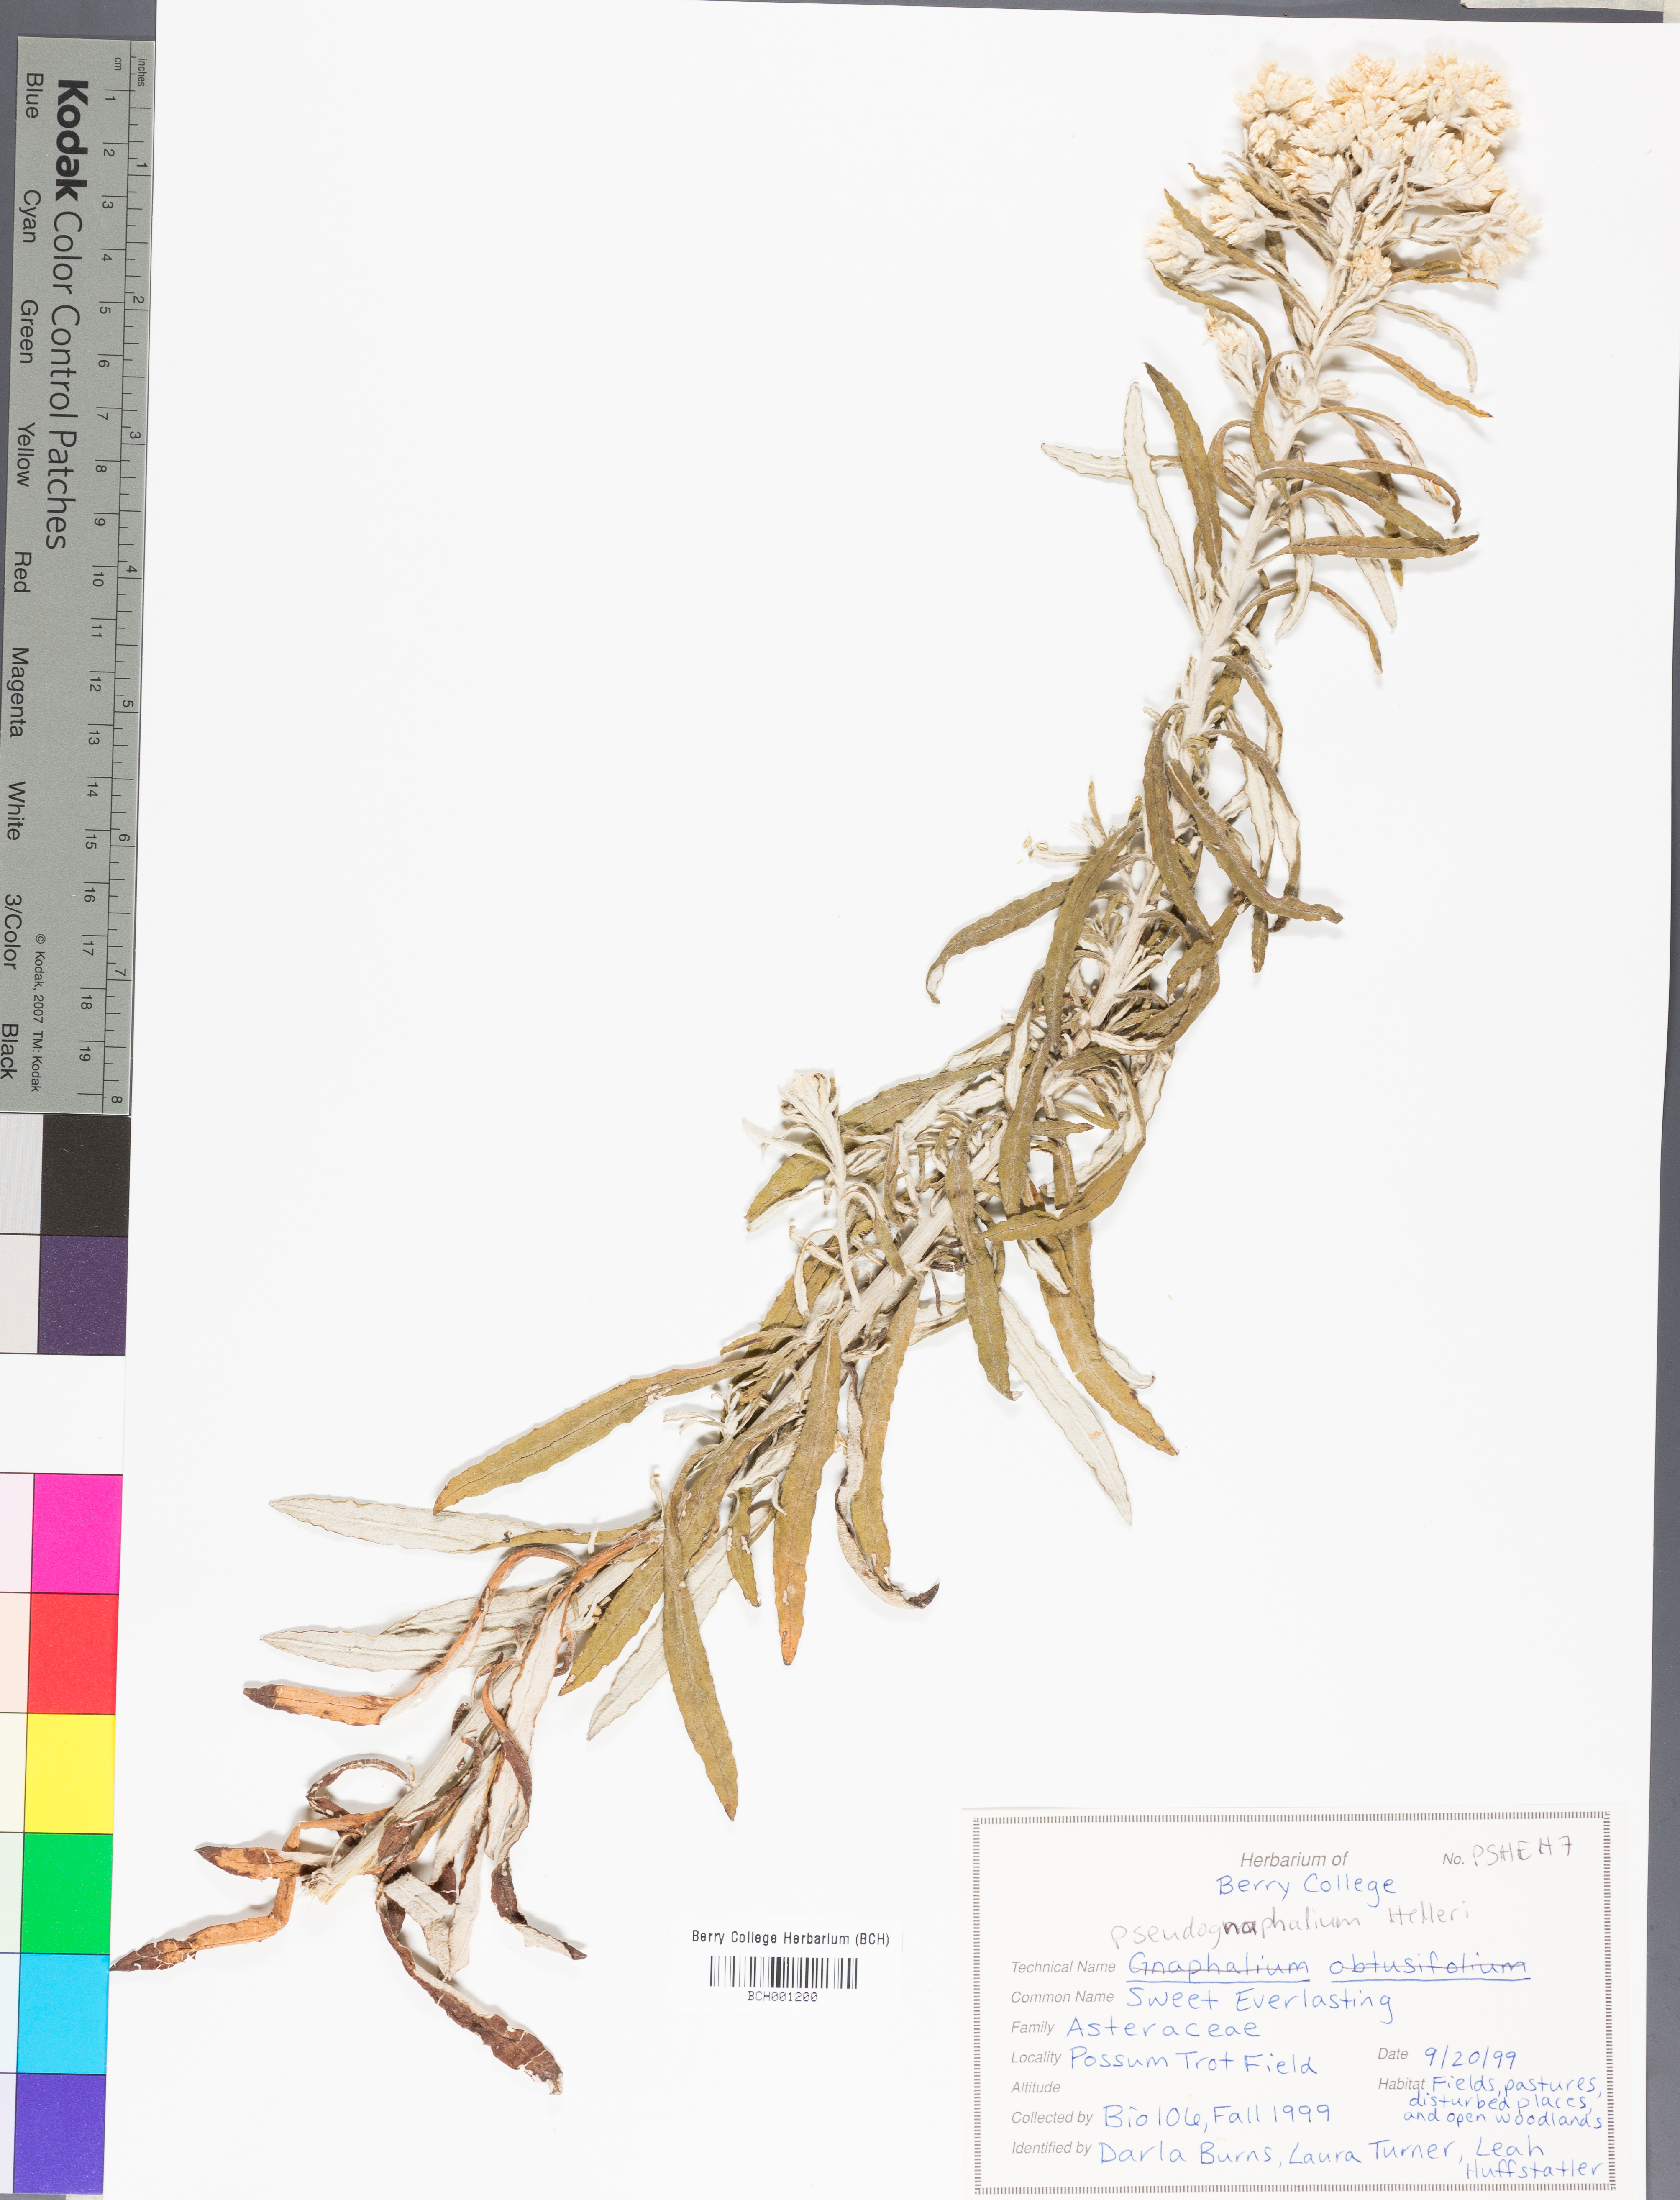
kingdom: Plantae
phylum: Tracheophyta
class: Magnoliopsida
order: Asterales
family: Asteraceae
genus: Pseudognaphalium
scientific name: Pseudognaphalium helleri
